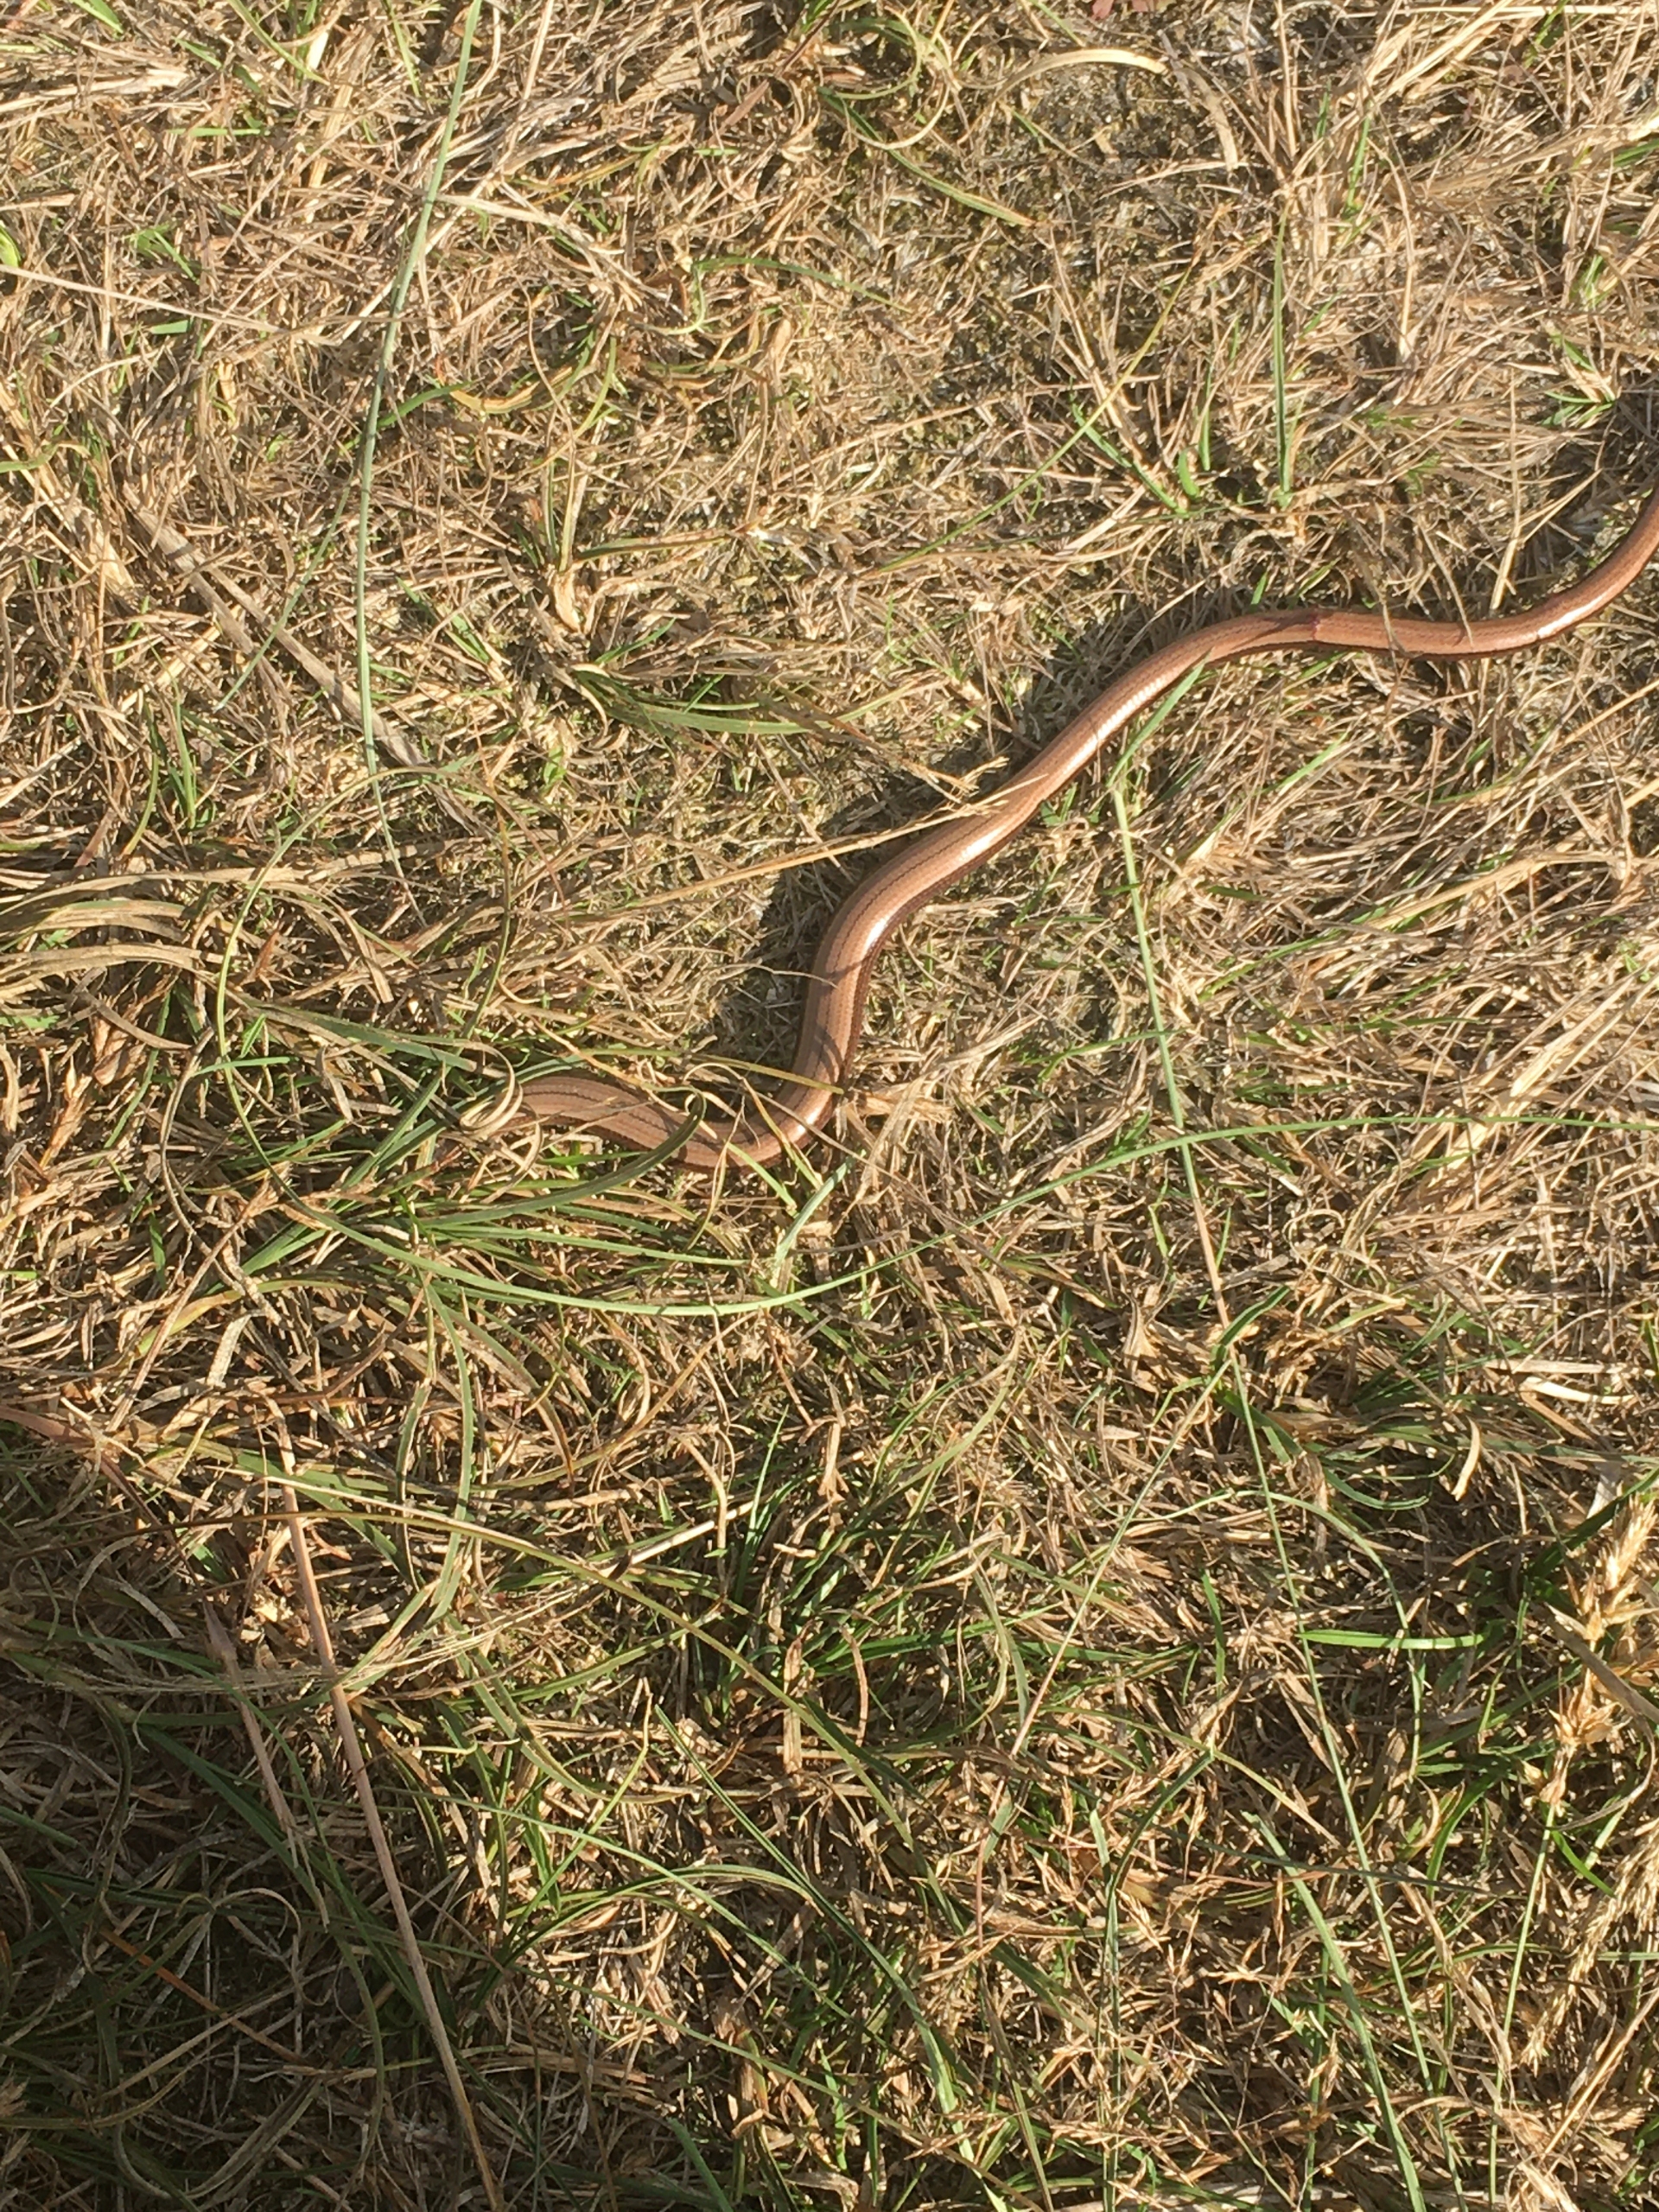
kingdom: Animalia
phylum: Chordata
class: Squamata
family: Anguidae
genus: Anguis
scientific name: Anguis fragilis
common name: Stålorm
